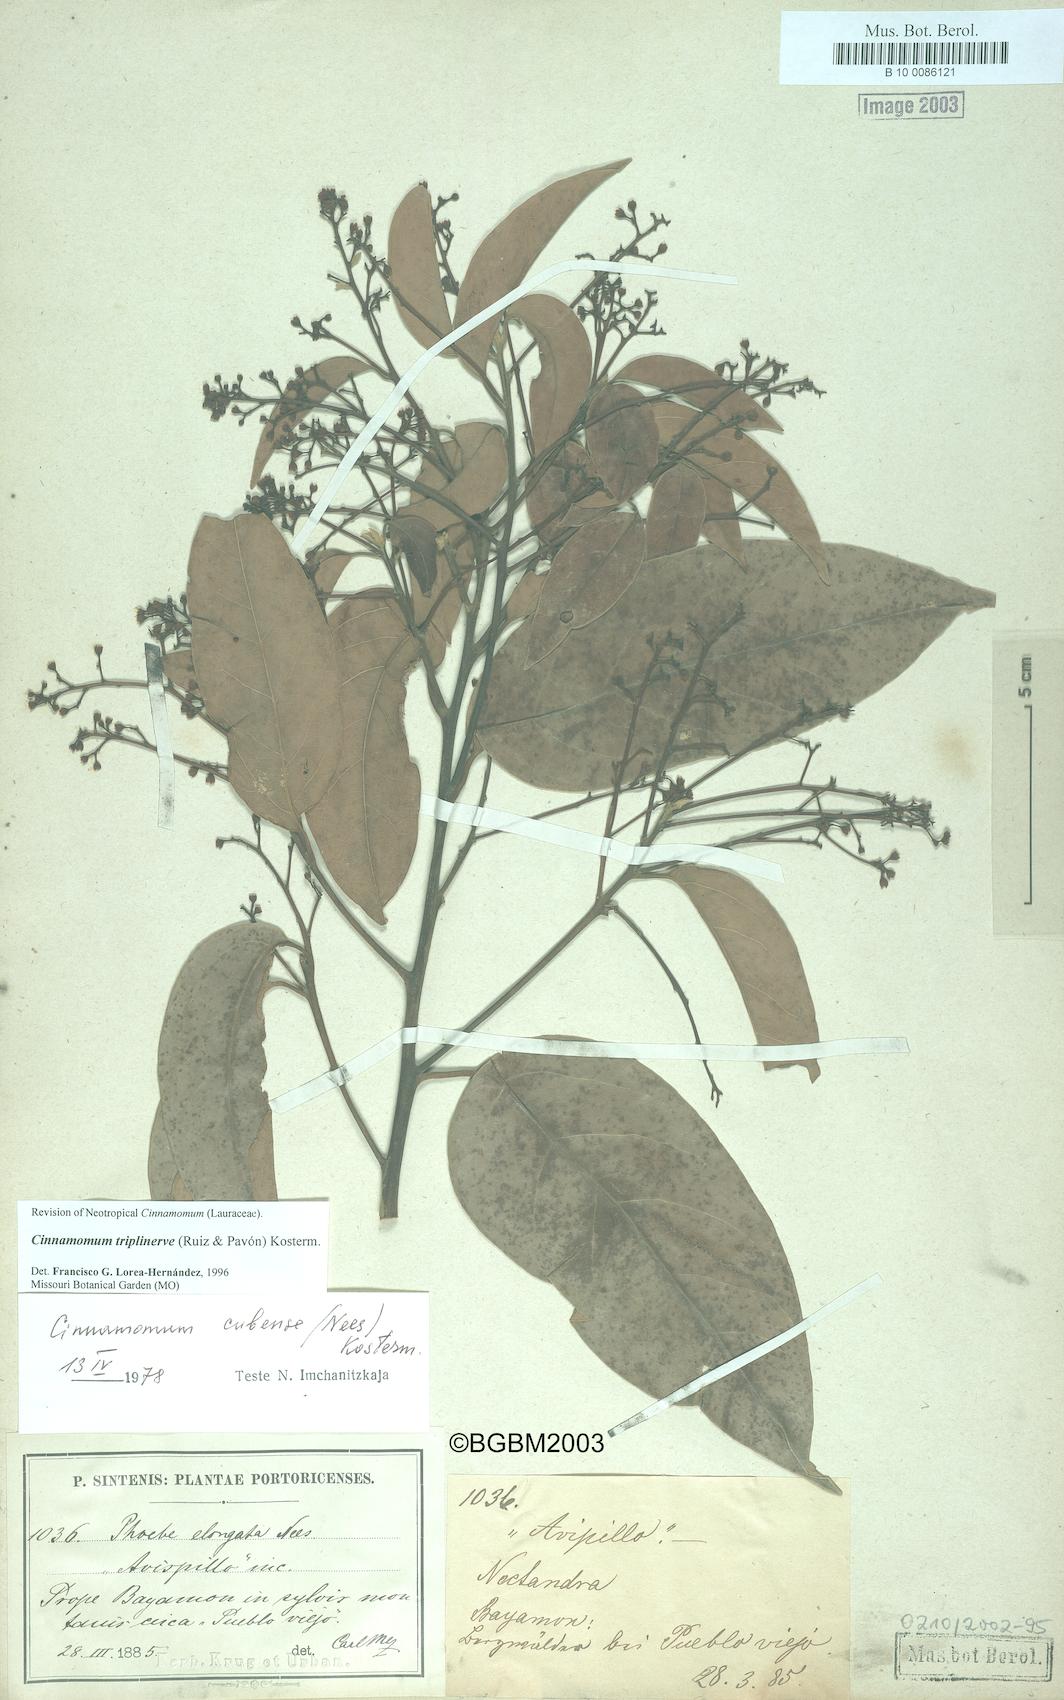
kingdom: Plantae
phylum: Tracheophyta
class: Magnoliopsida
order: Laurales
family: Lauraceae
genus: Aiouea
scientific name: Aiouea montana
